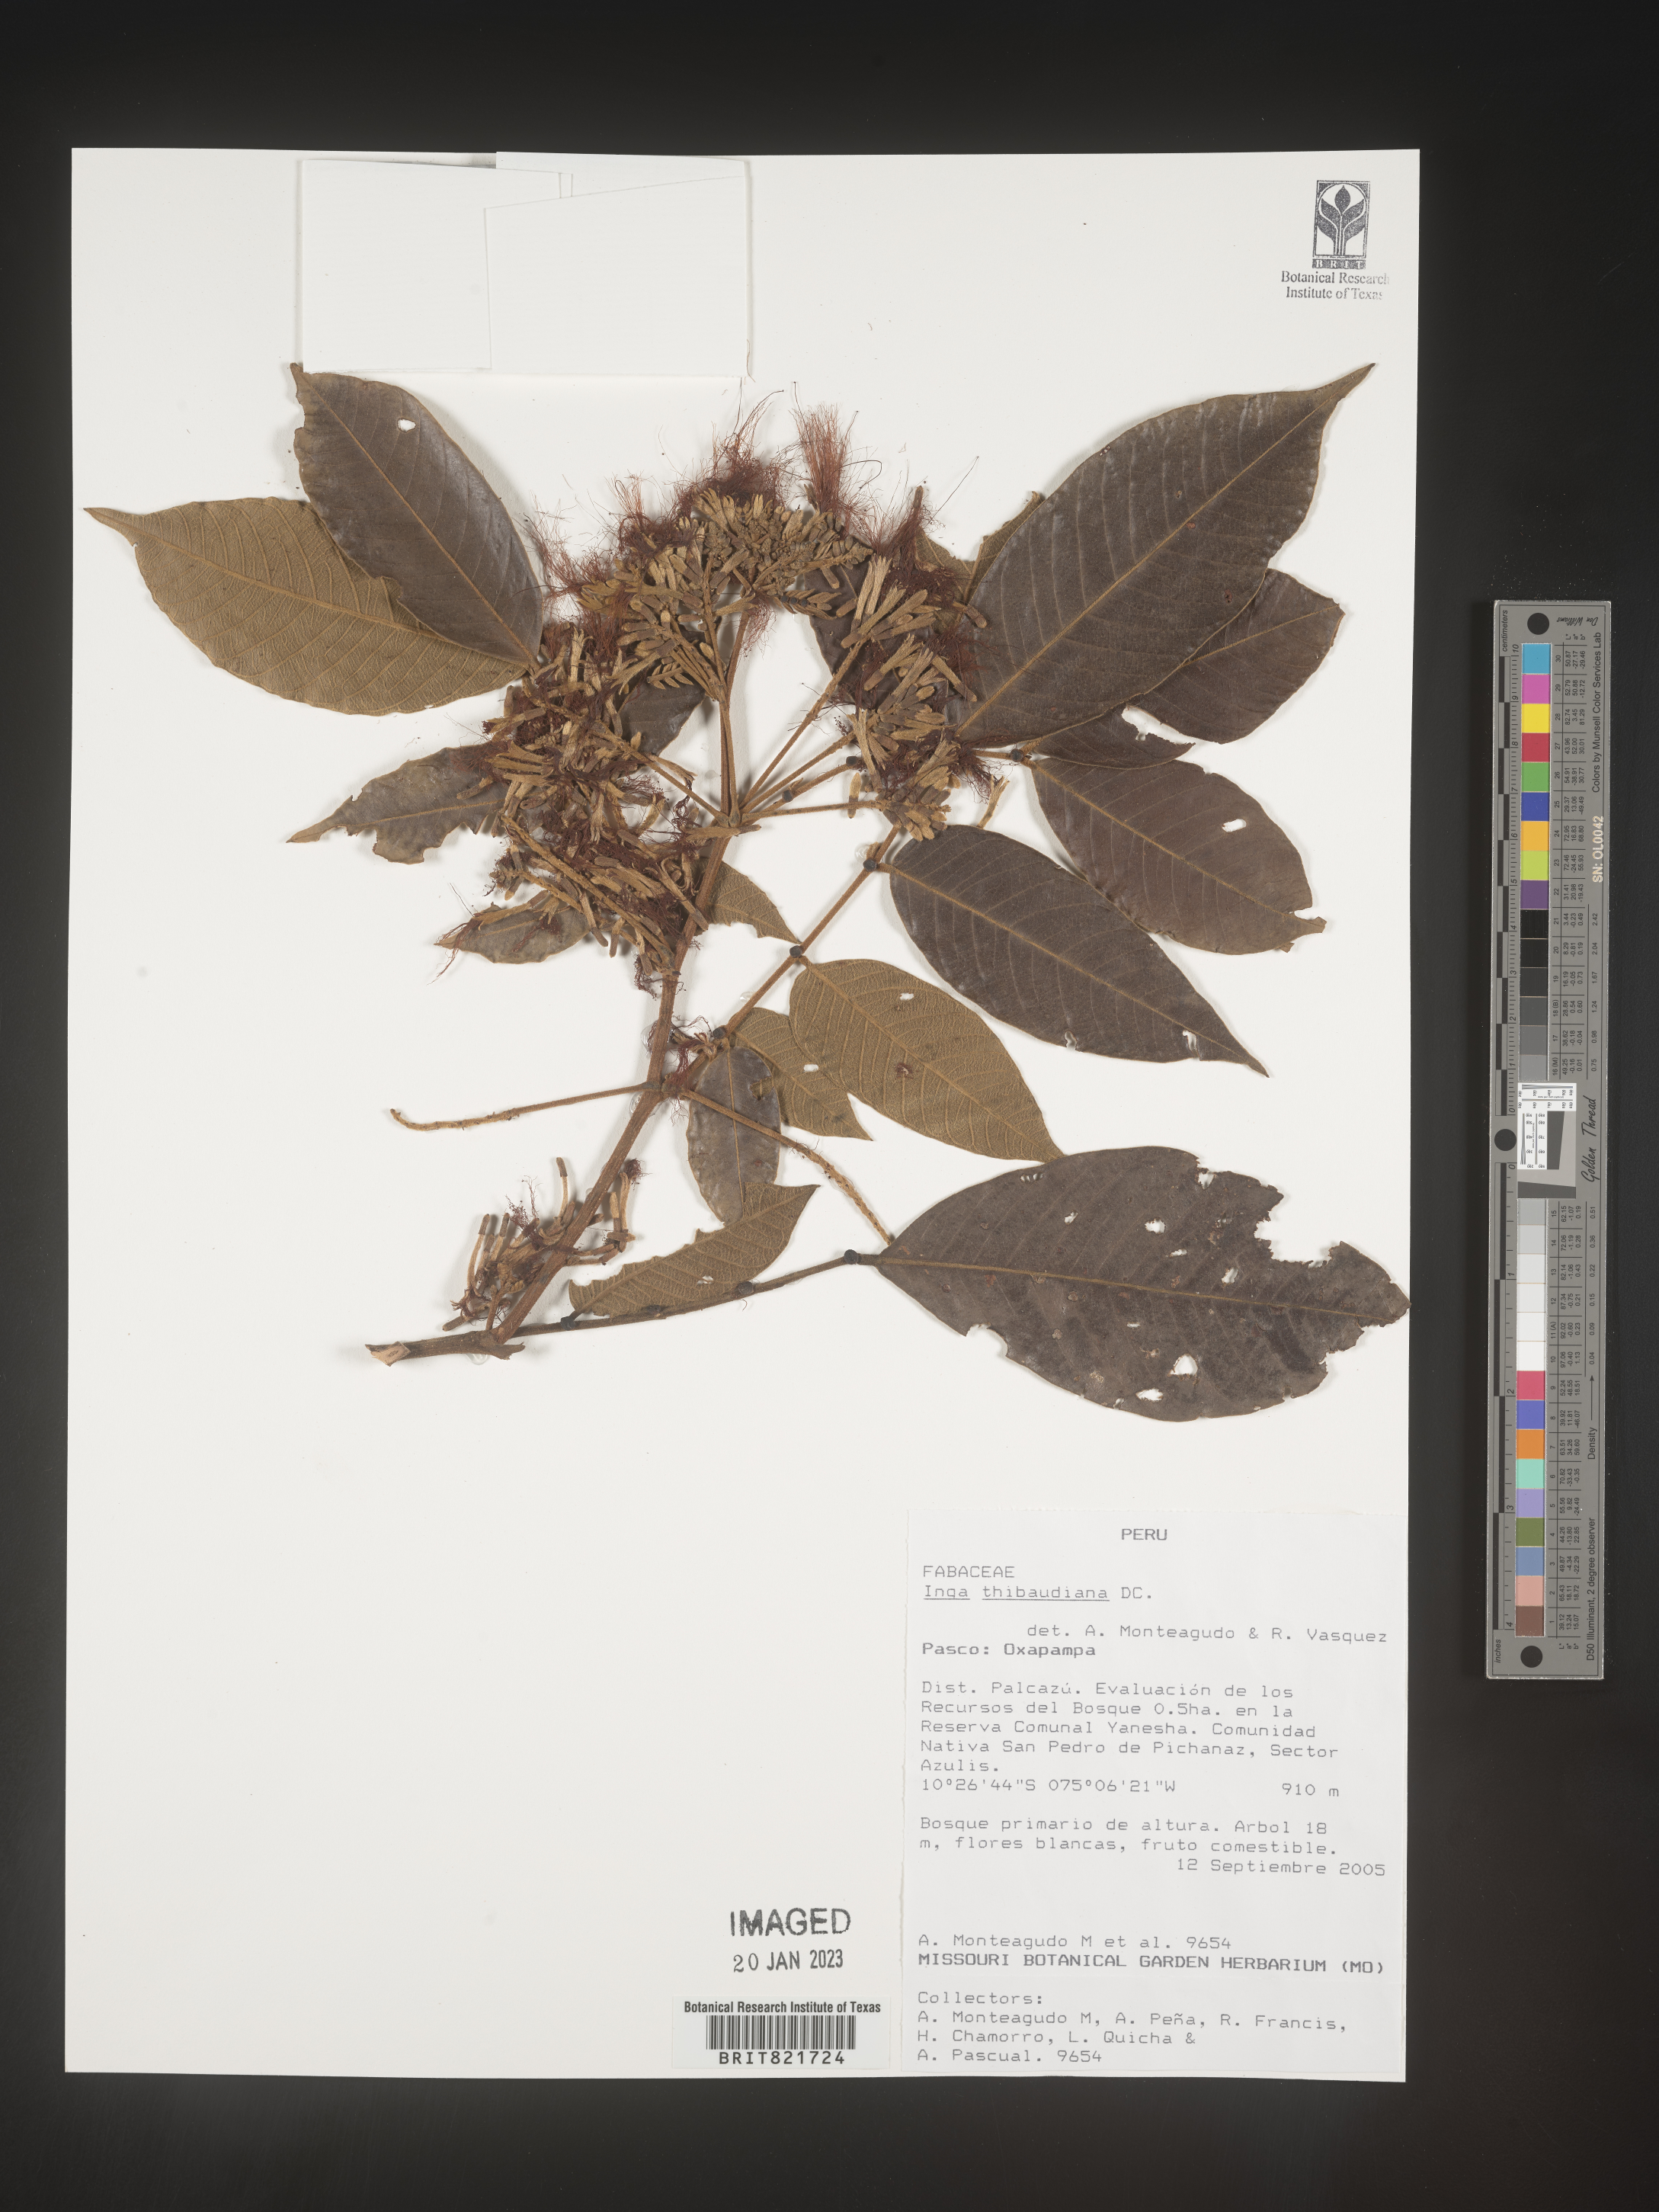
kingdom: Plantae
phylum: Tracheophyta
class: Magnoliopsida
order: Fabales
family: Fabaceae
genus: Inga
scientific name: Inga
